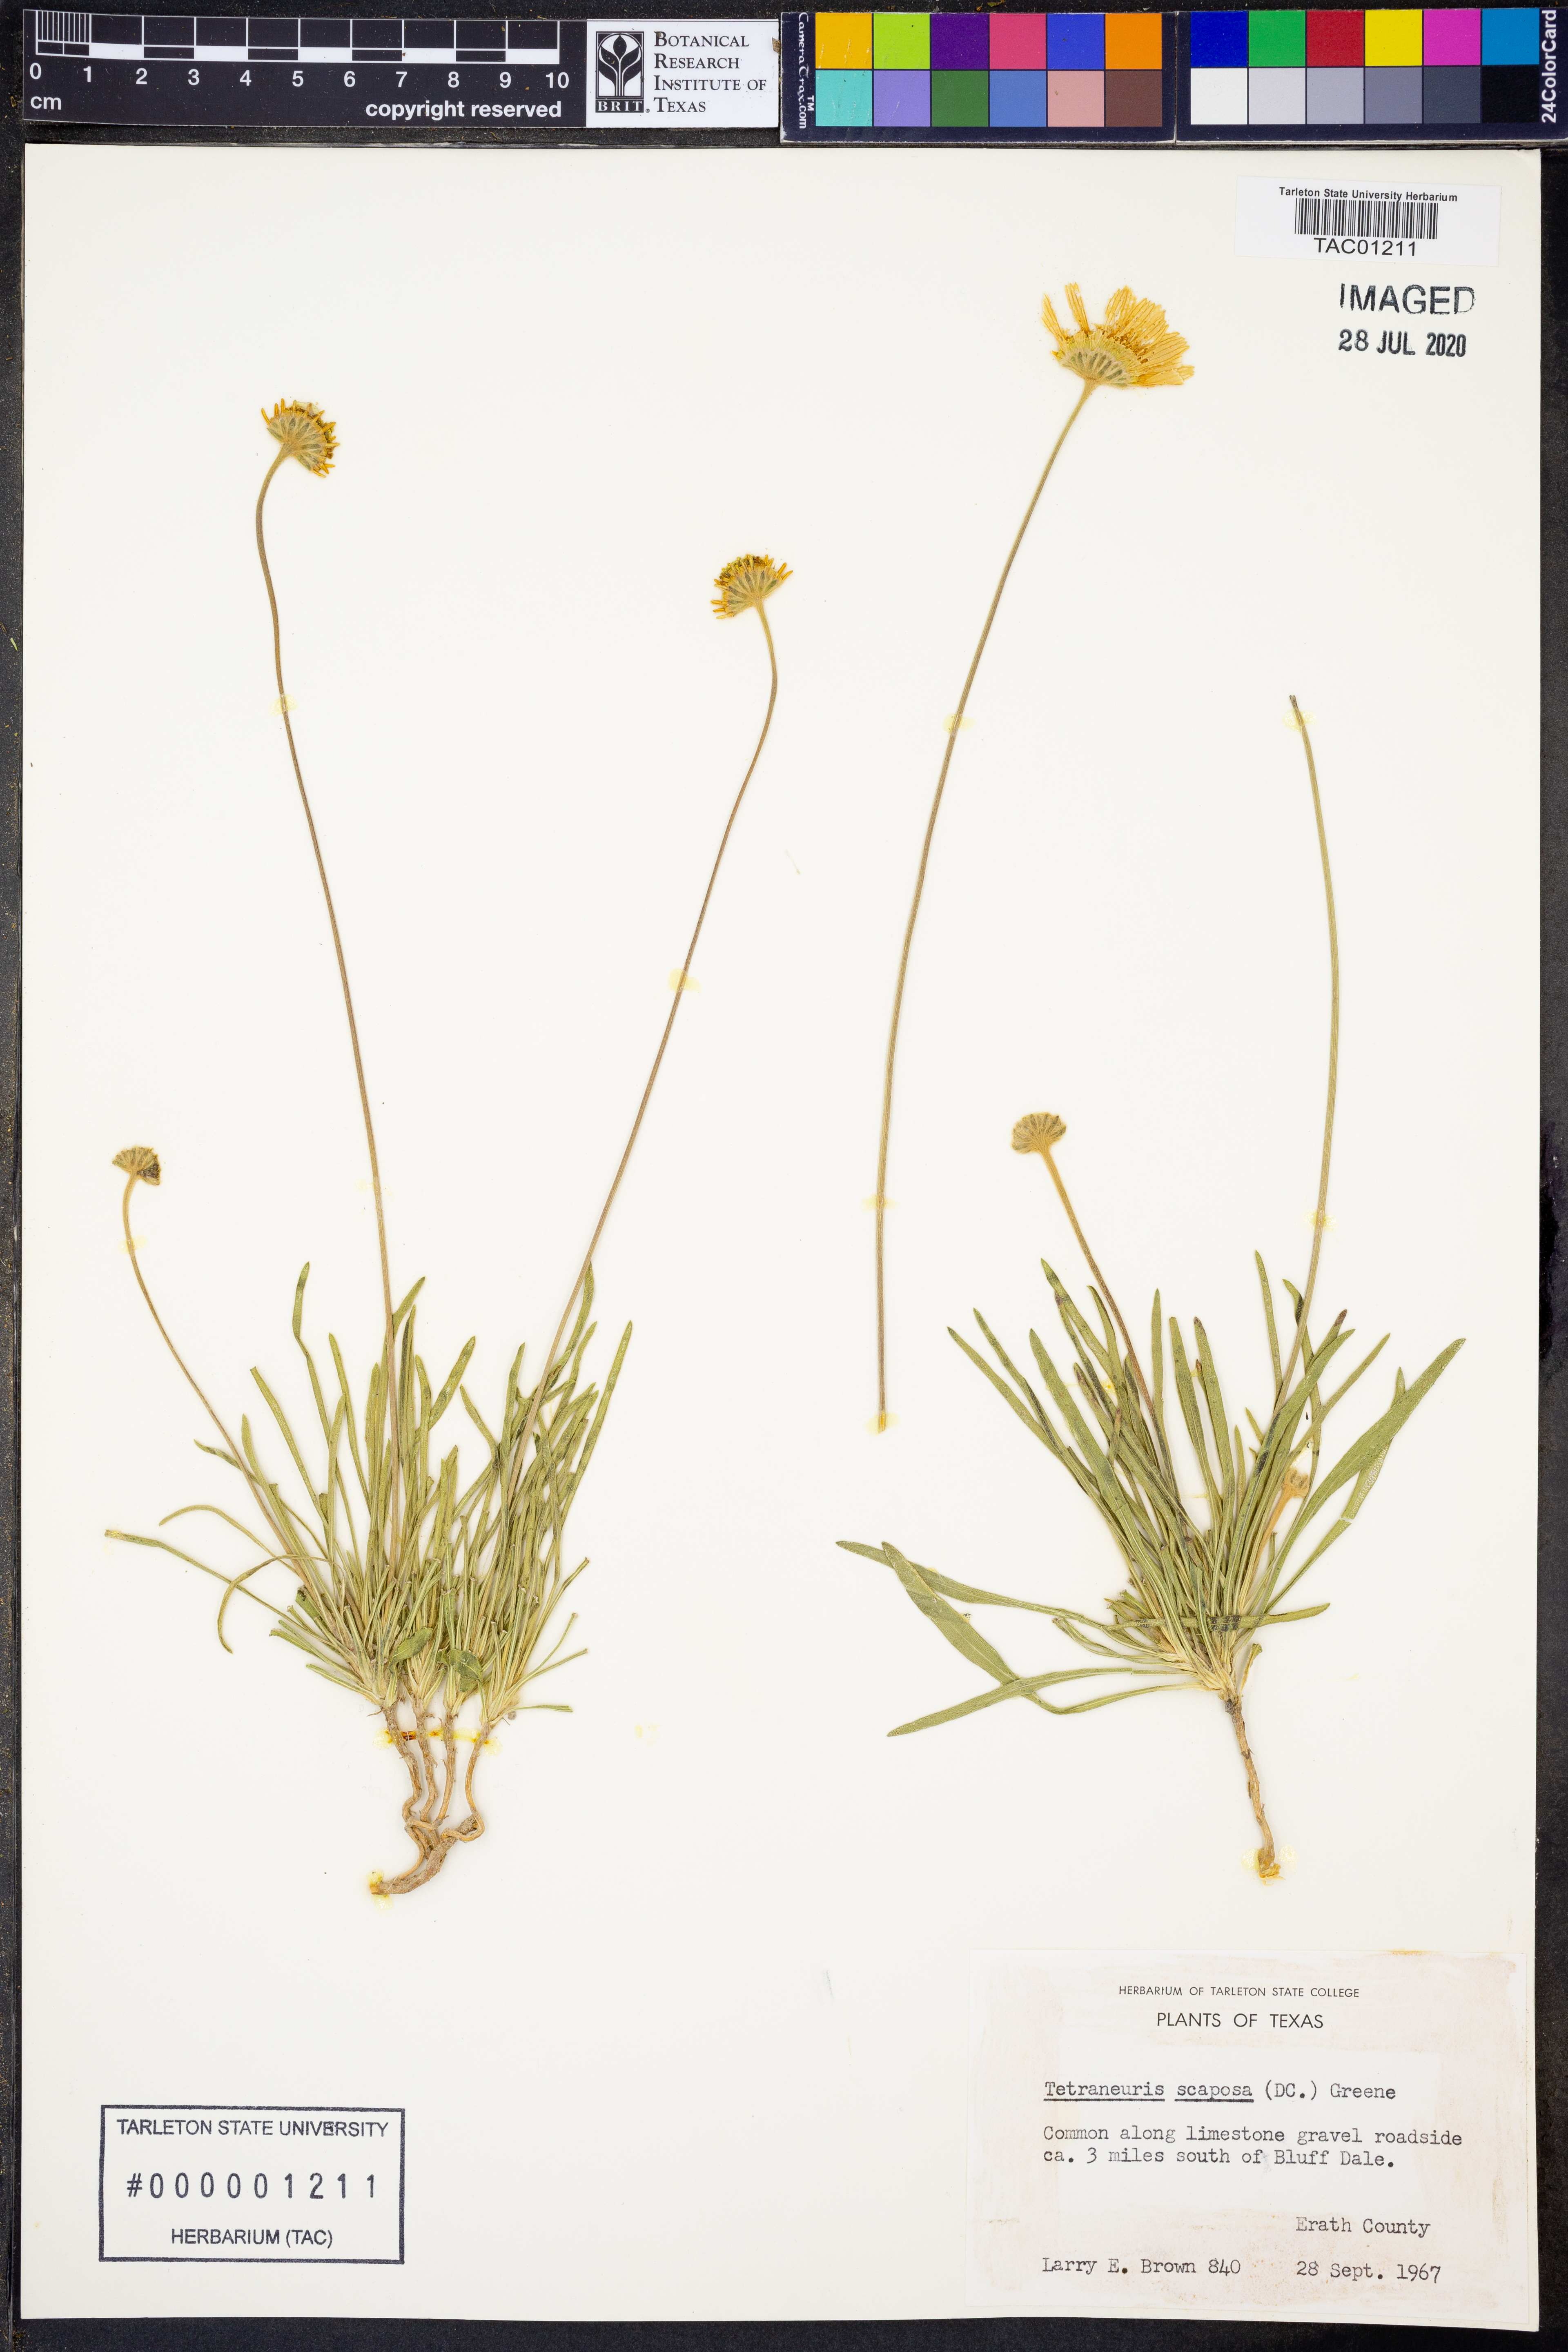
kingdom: Plantae
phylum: Tracheophyta
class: Magnoliopsida
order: Asterales
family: Asteraceae
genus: Tetraneuris
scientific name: Tetraneuris scaposa
